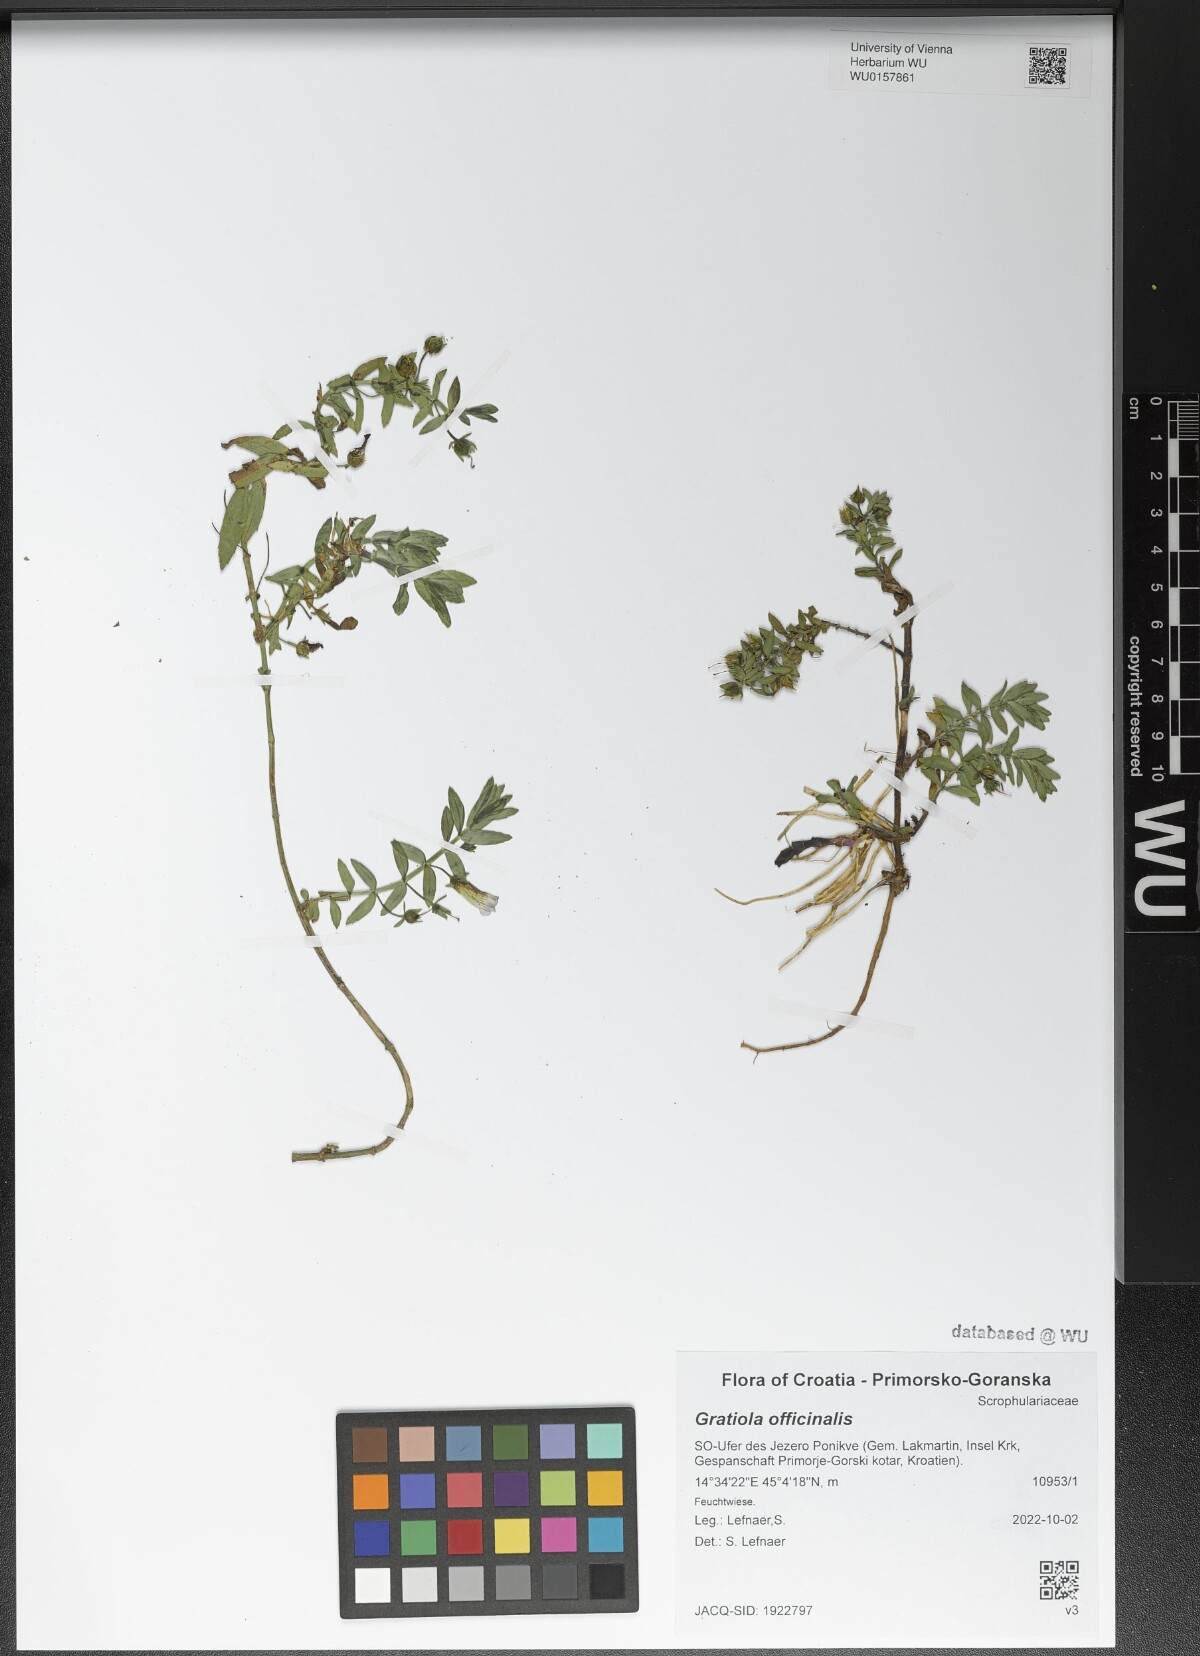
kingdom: Plantae
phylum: Tracheophyta
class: Magnoliopsida
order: Lamiales
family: Plantaginaceae
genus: Gratiola
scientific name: Gratiola officinalis
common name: Gratiola
